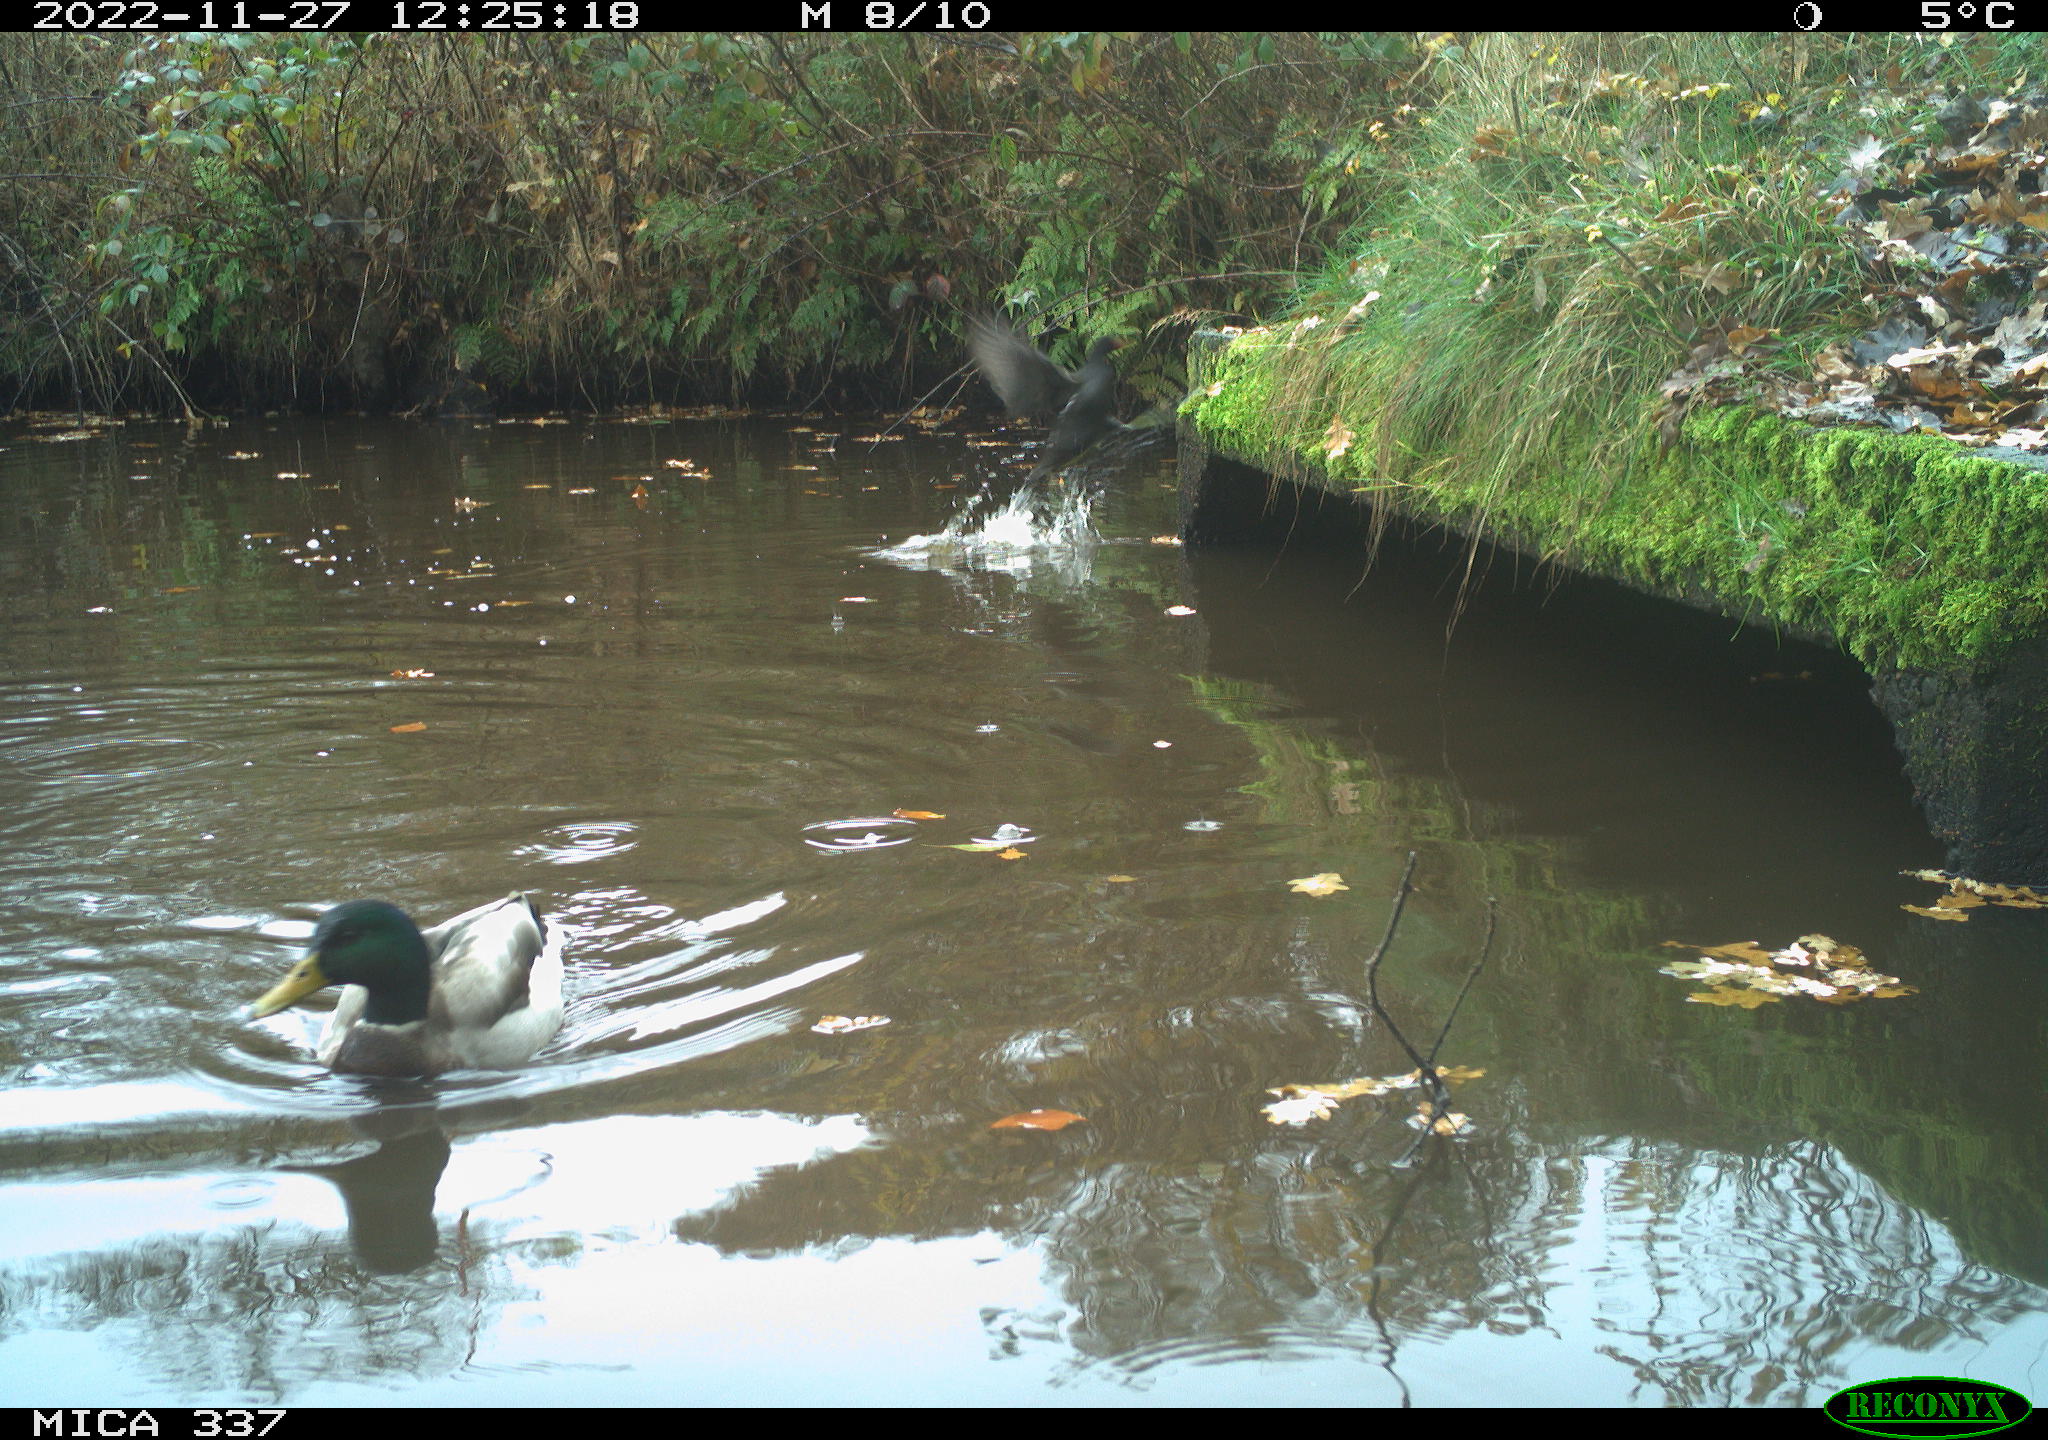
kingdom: Animalia
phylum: Chordata
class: Aves
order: Gruiformes
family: Rallidae
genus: Gallinula
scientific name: Gallinula chloropus
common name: Common moorhen
